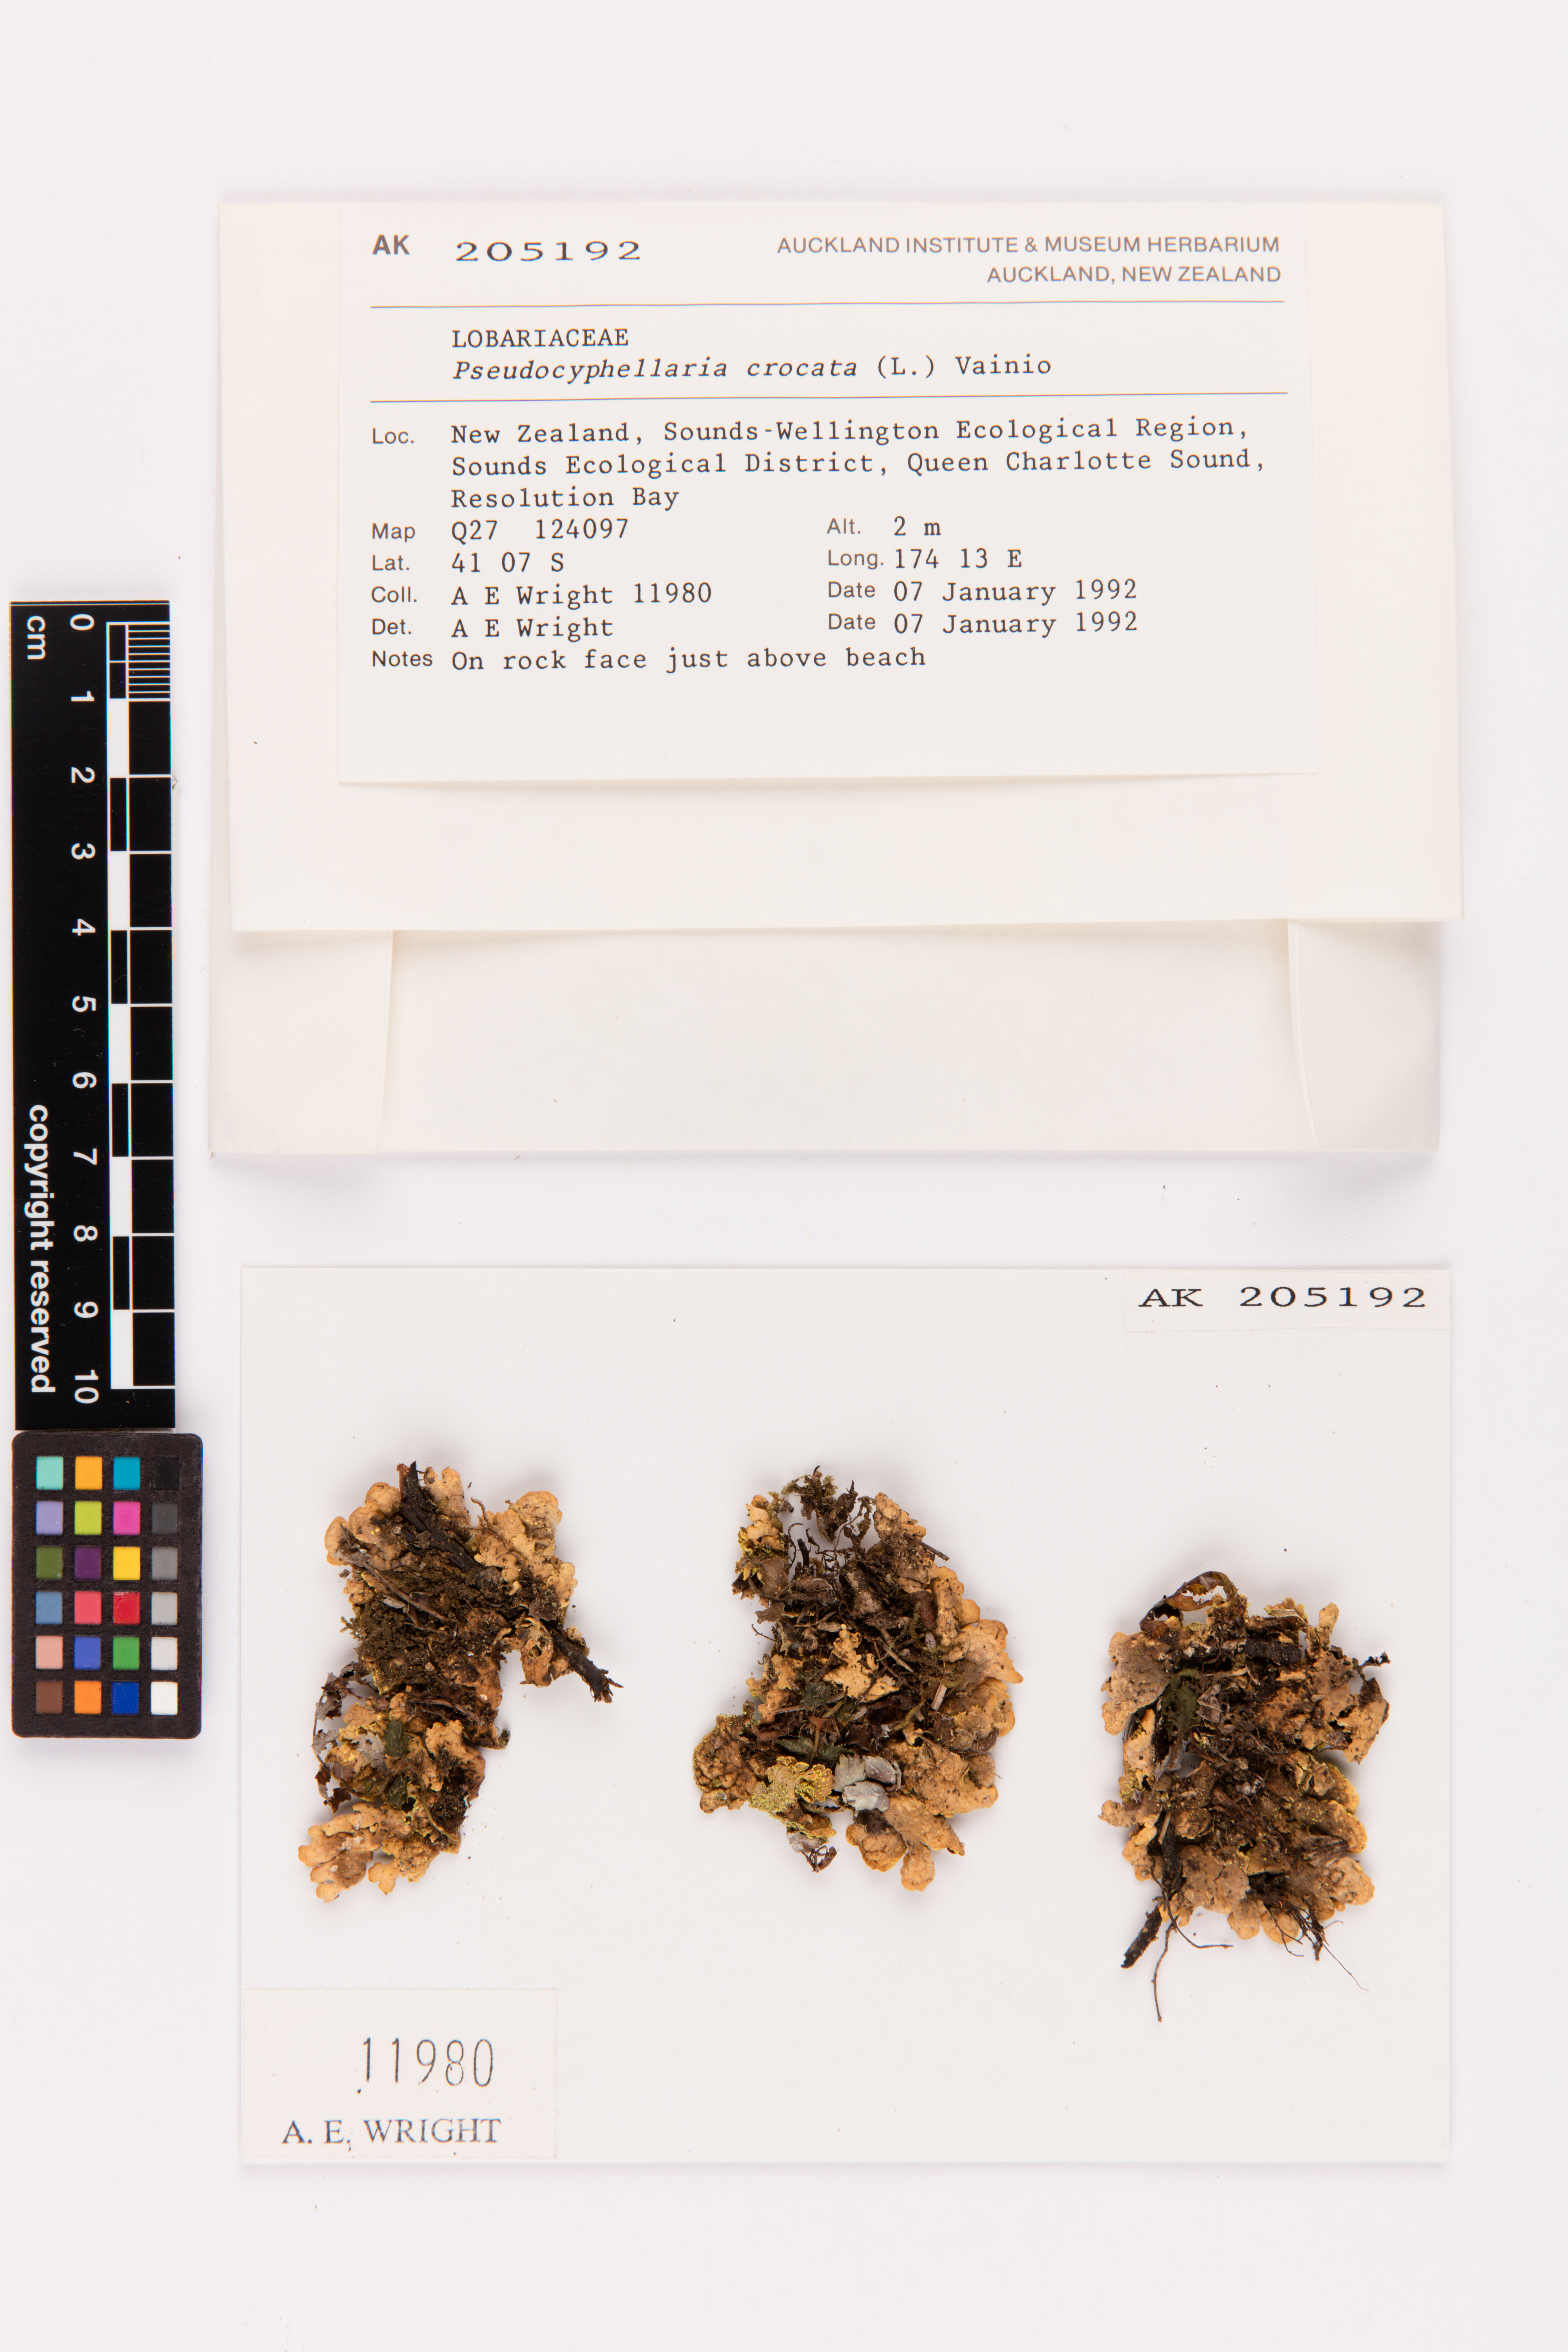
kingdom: Fungi
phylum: Ascomycota
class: Lecanoromycetes
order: Peltigerales
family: Lobariaceae
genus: Pseudocyphellaria
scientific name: Pseudocyphellaria crocata
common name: Golden specklebelly
